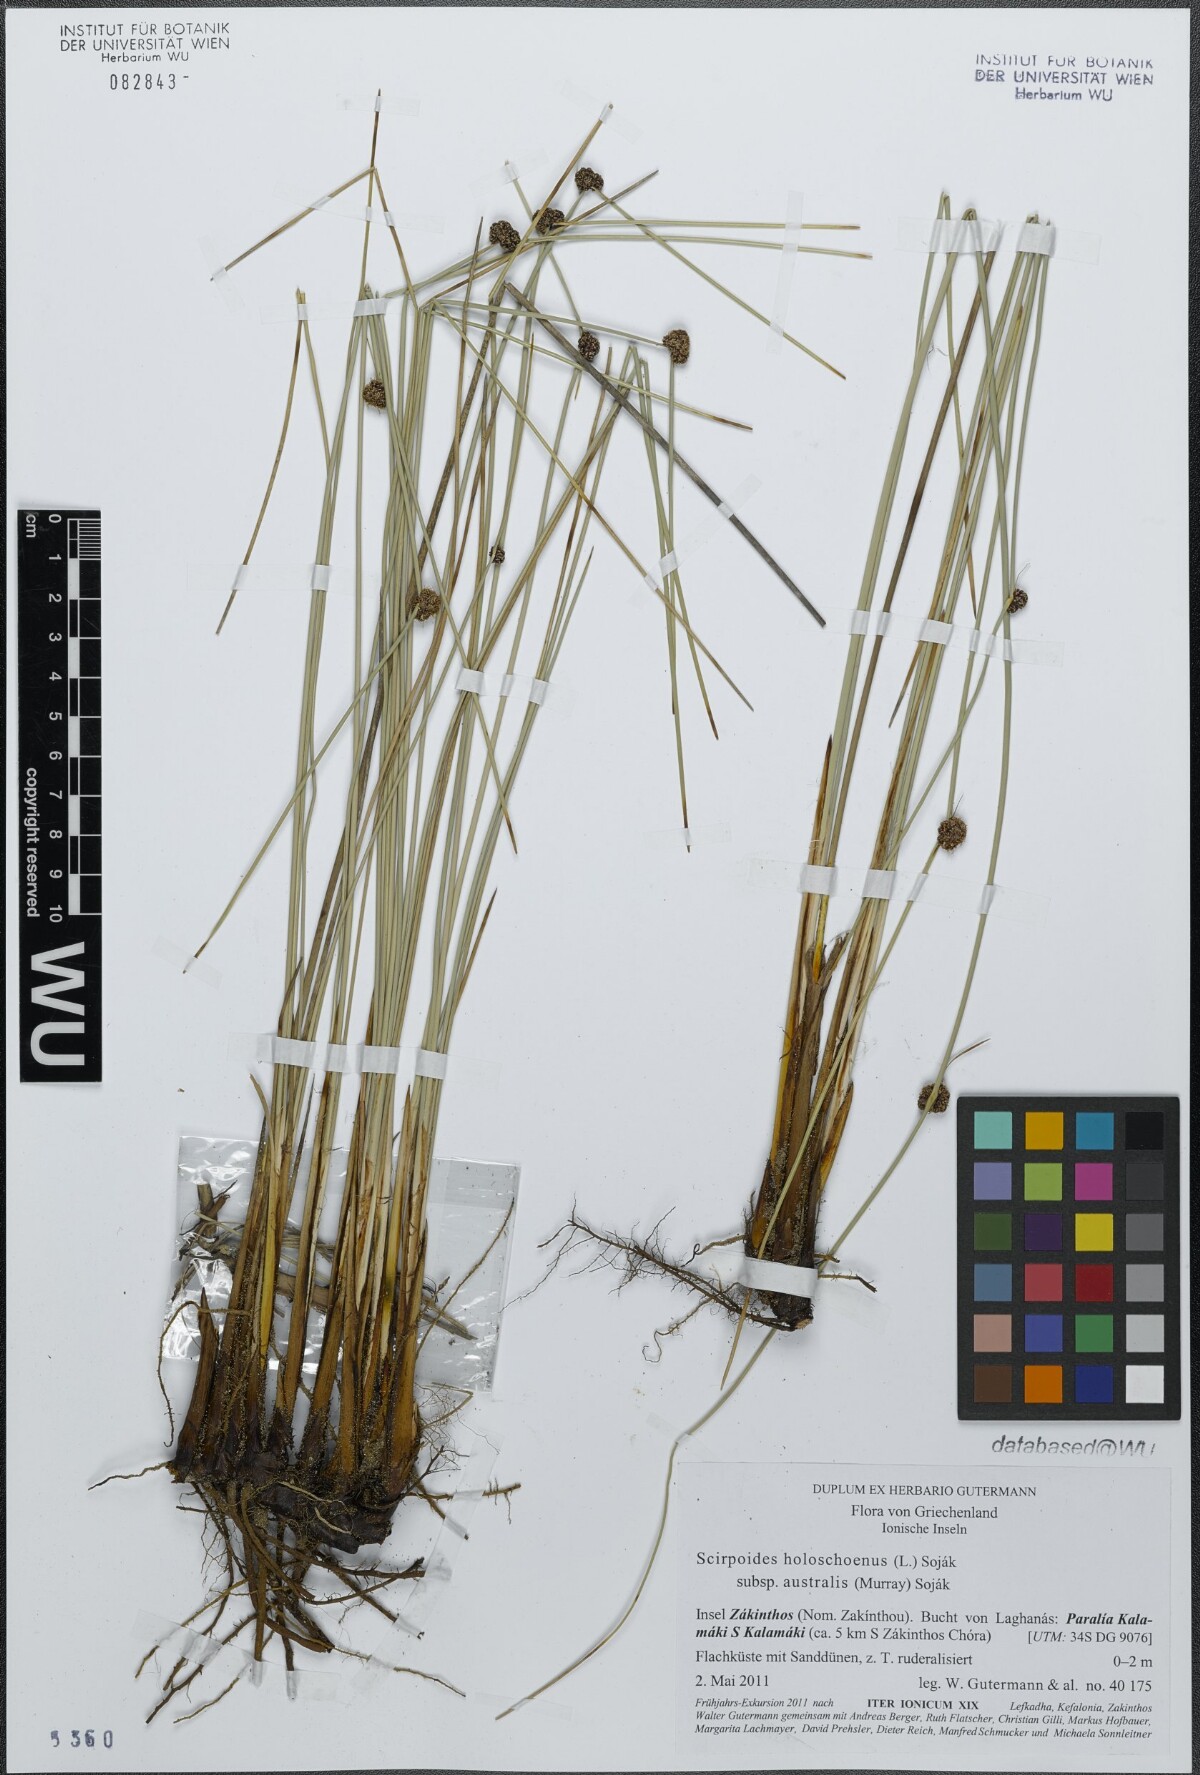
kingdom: Plantae
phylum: Tracheophyta
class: Liliopsida
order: Poales
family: Cyperaceae
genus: Scirpoides
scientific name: Scirpoides holoschoenus
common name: Round-headed club-rush
